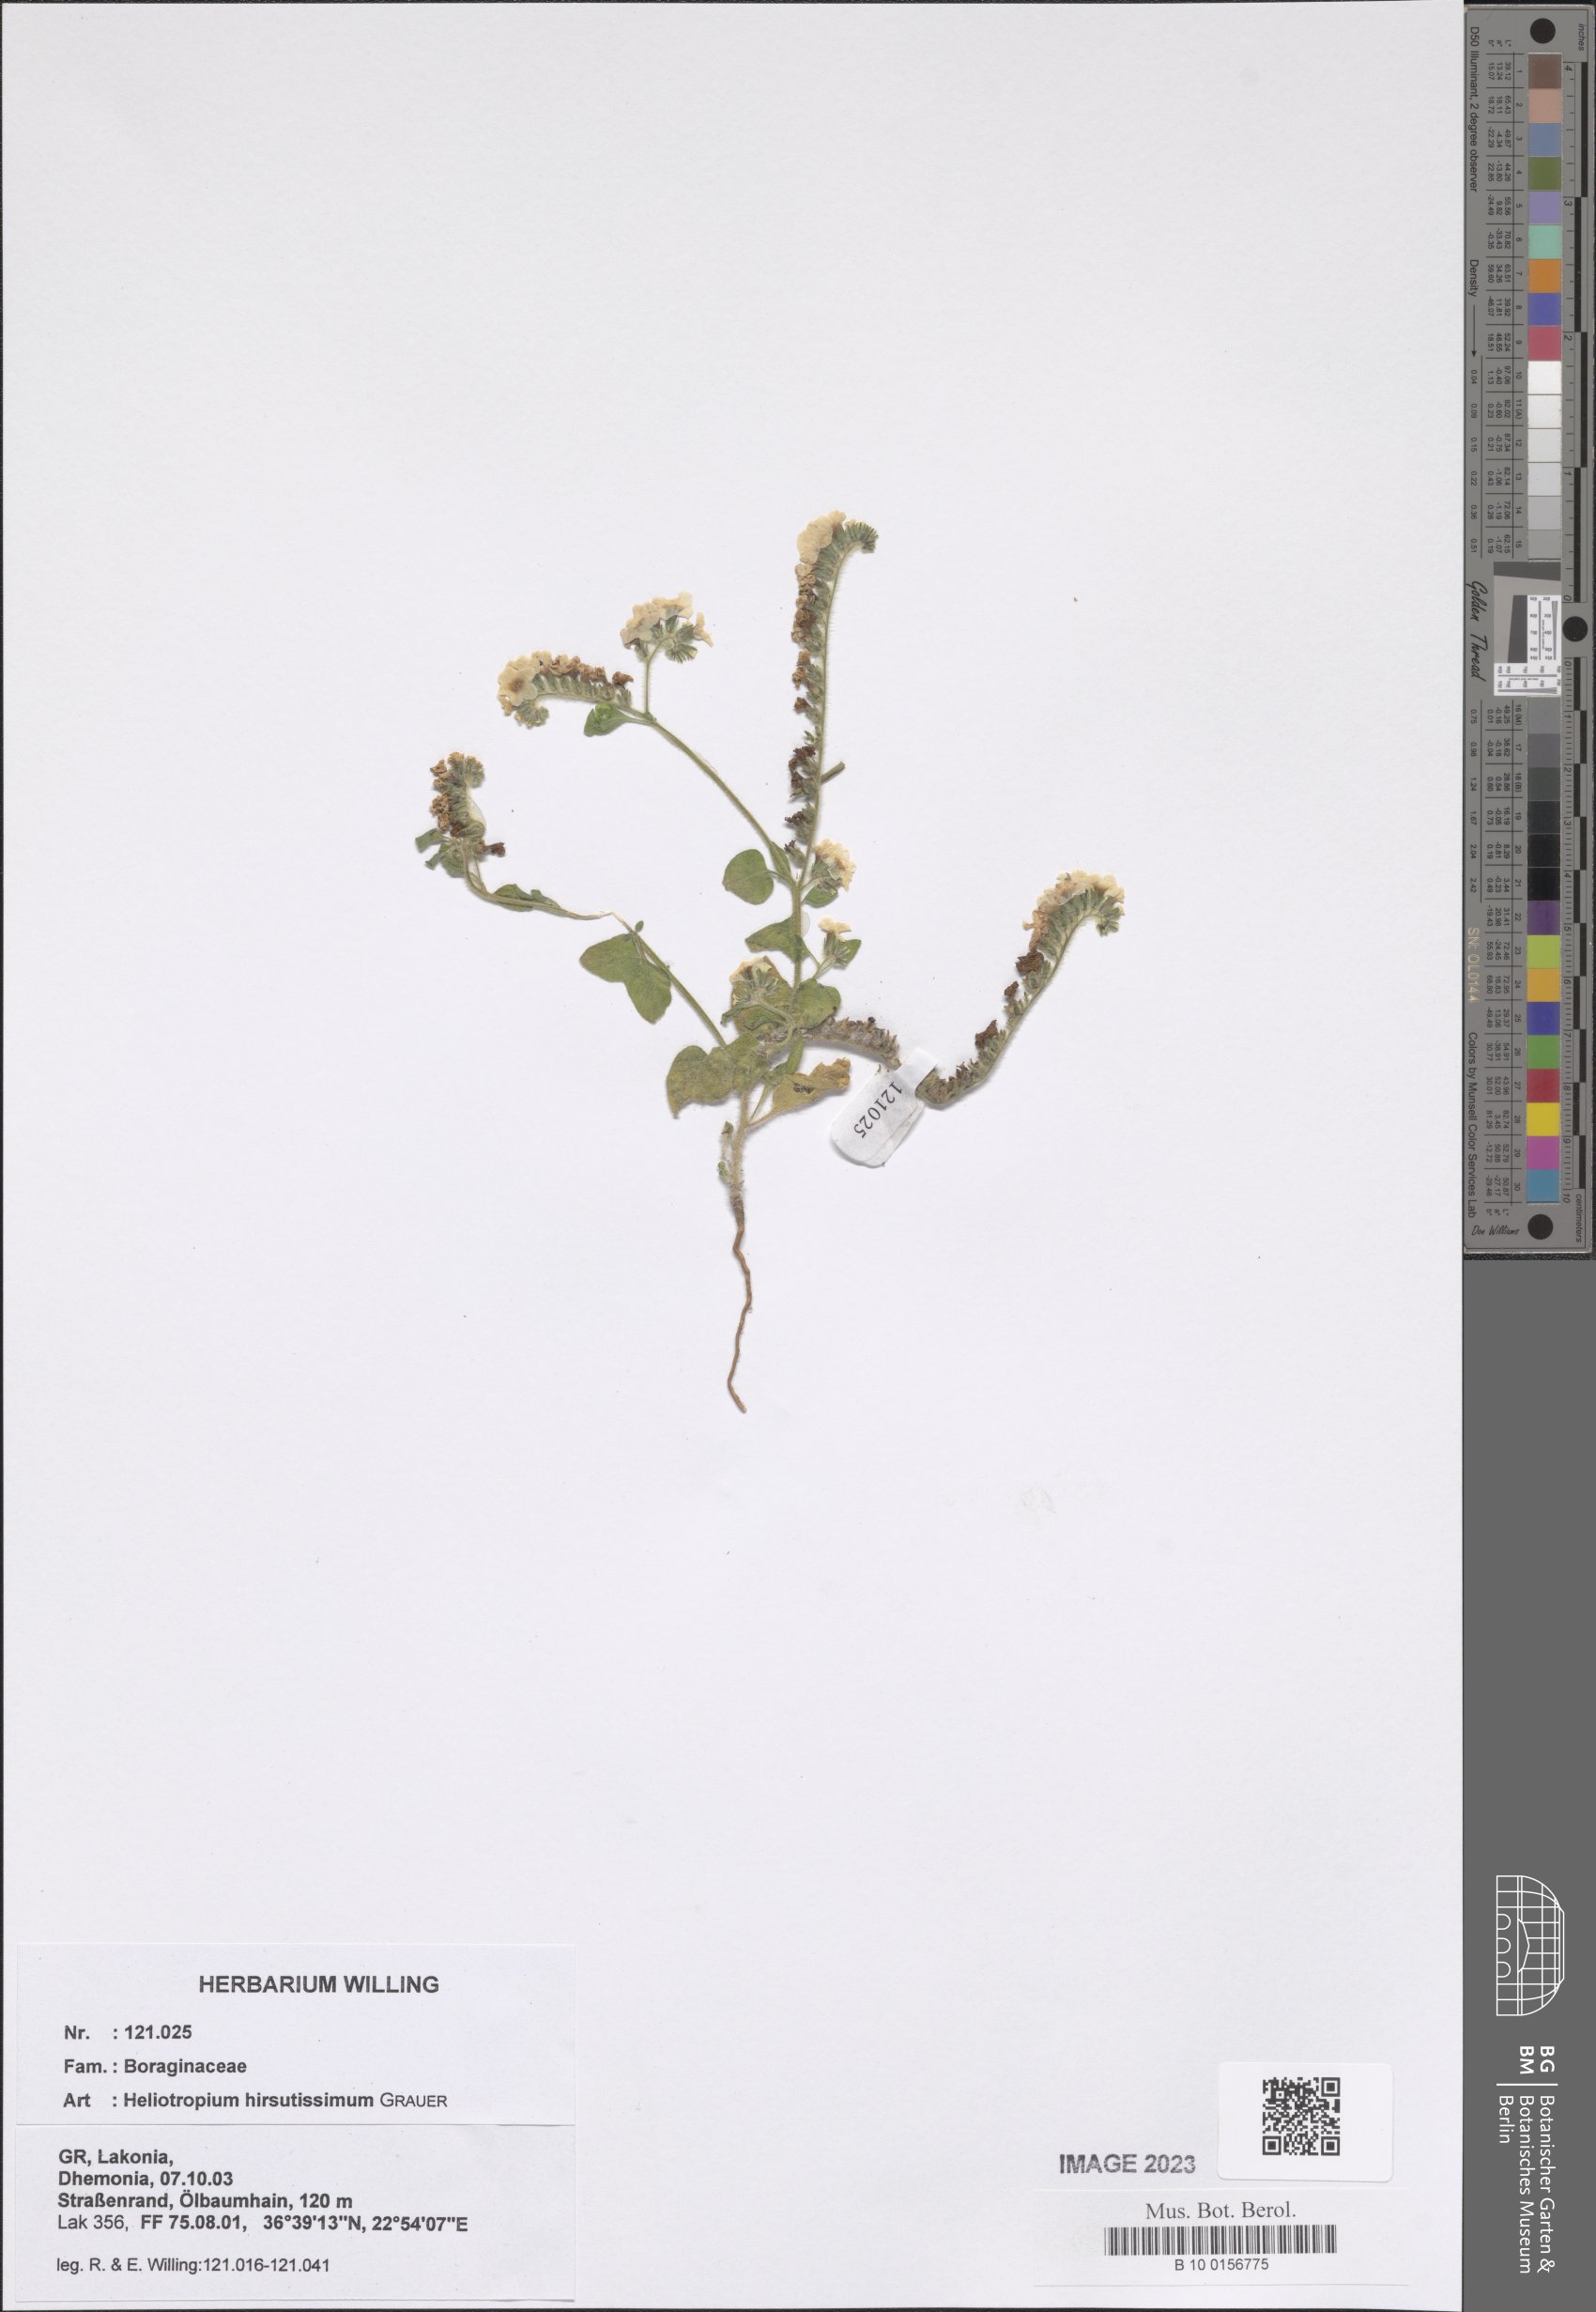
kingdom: Plantae
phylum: Tracheophyta
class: Magnoliopsida
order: Boraginales
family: Heliotropiaceae
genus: Heliotropium
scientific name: Heliotropium hirsutissimum
